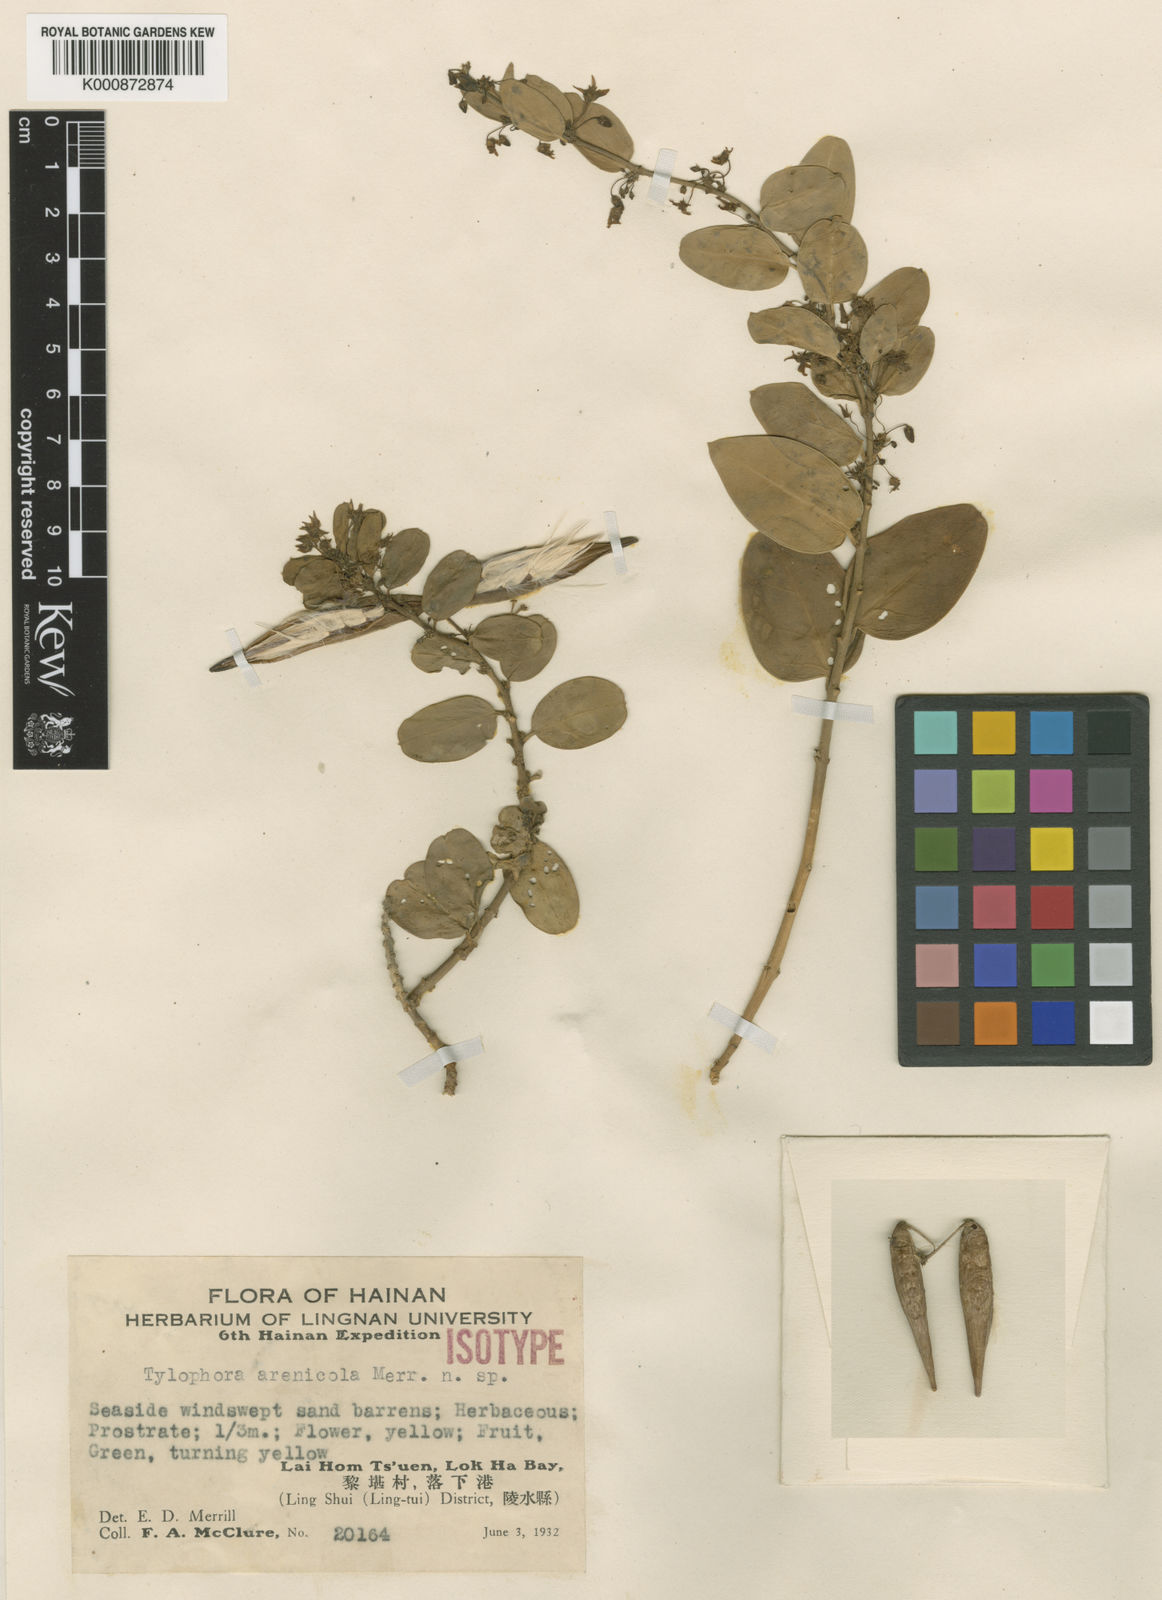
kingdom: Plantae
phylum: Tracheophyta
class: Magnoliopsida
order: Gentianales
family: Apocynaceae
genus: Vincetoxicum
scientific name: Vincetoxicum arenicola
